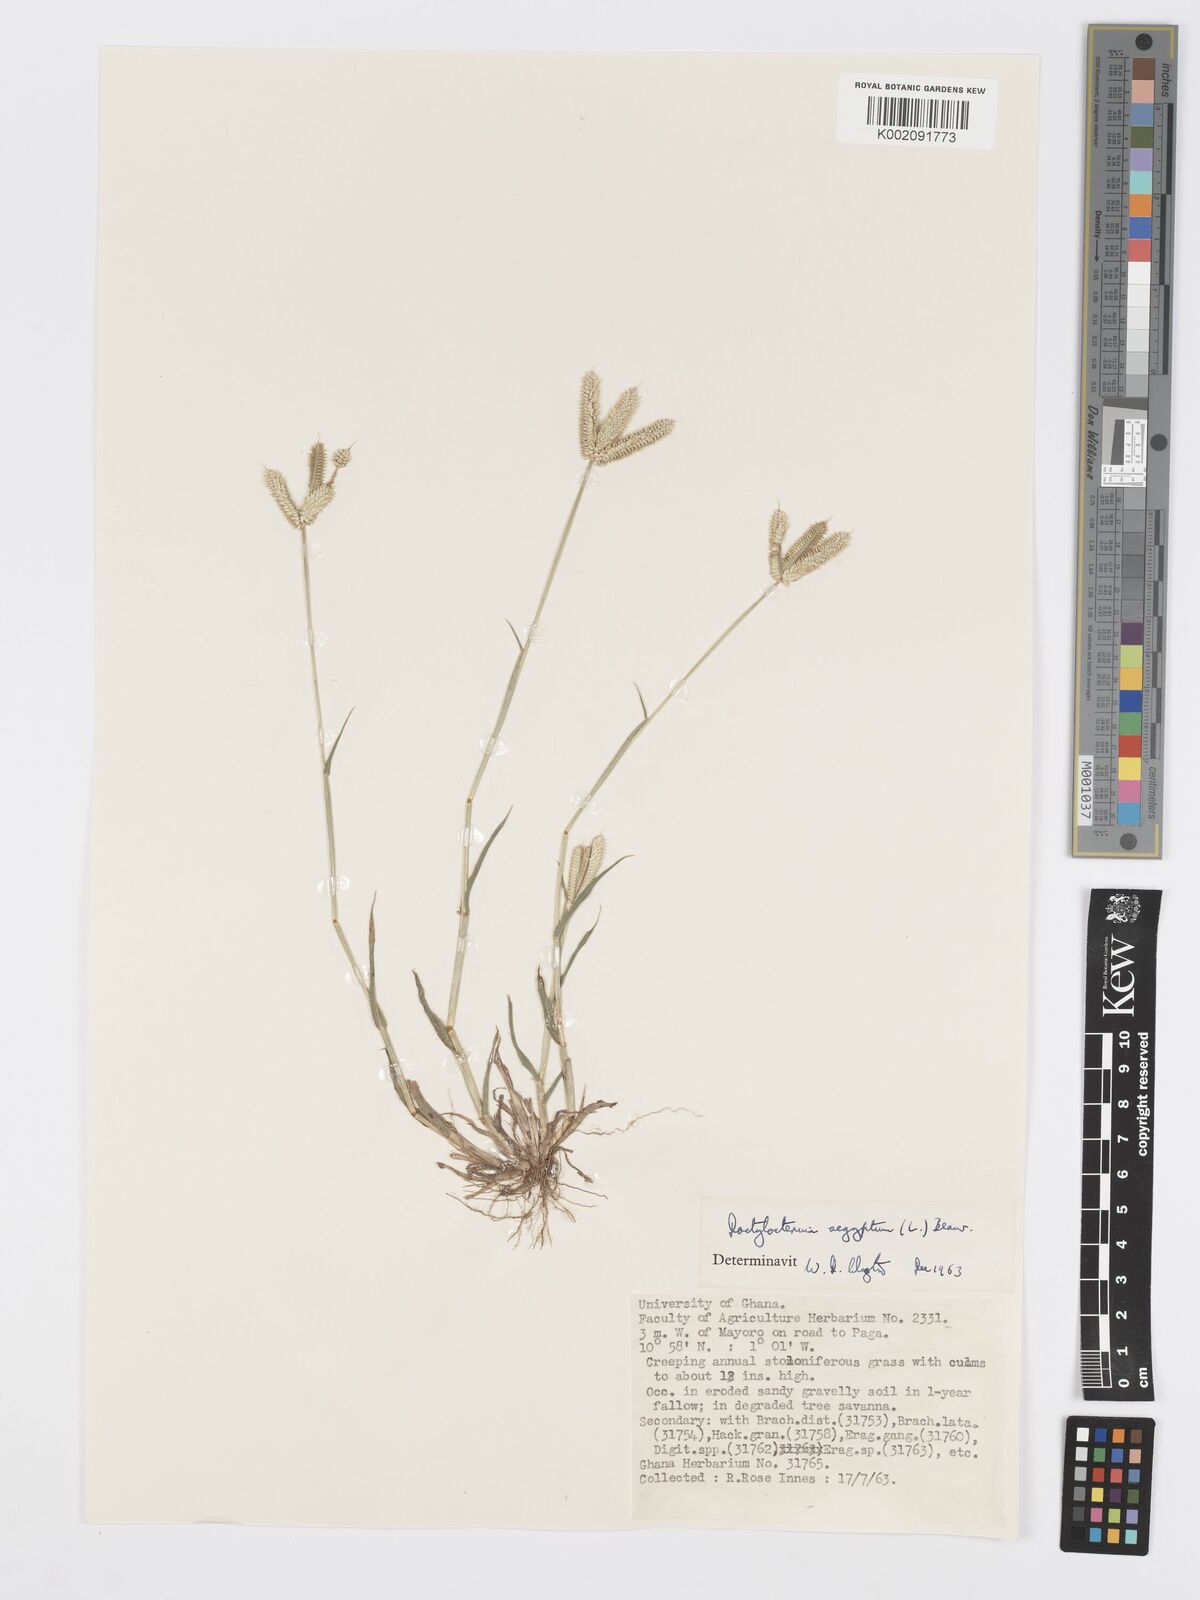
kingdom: Plantae
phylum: Tracheophyta
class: Liliopsida
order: Poales
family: Poaceae
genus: Dactyloctenium
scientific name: Dactyloctenium aegyptium
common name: Egyptian grass
